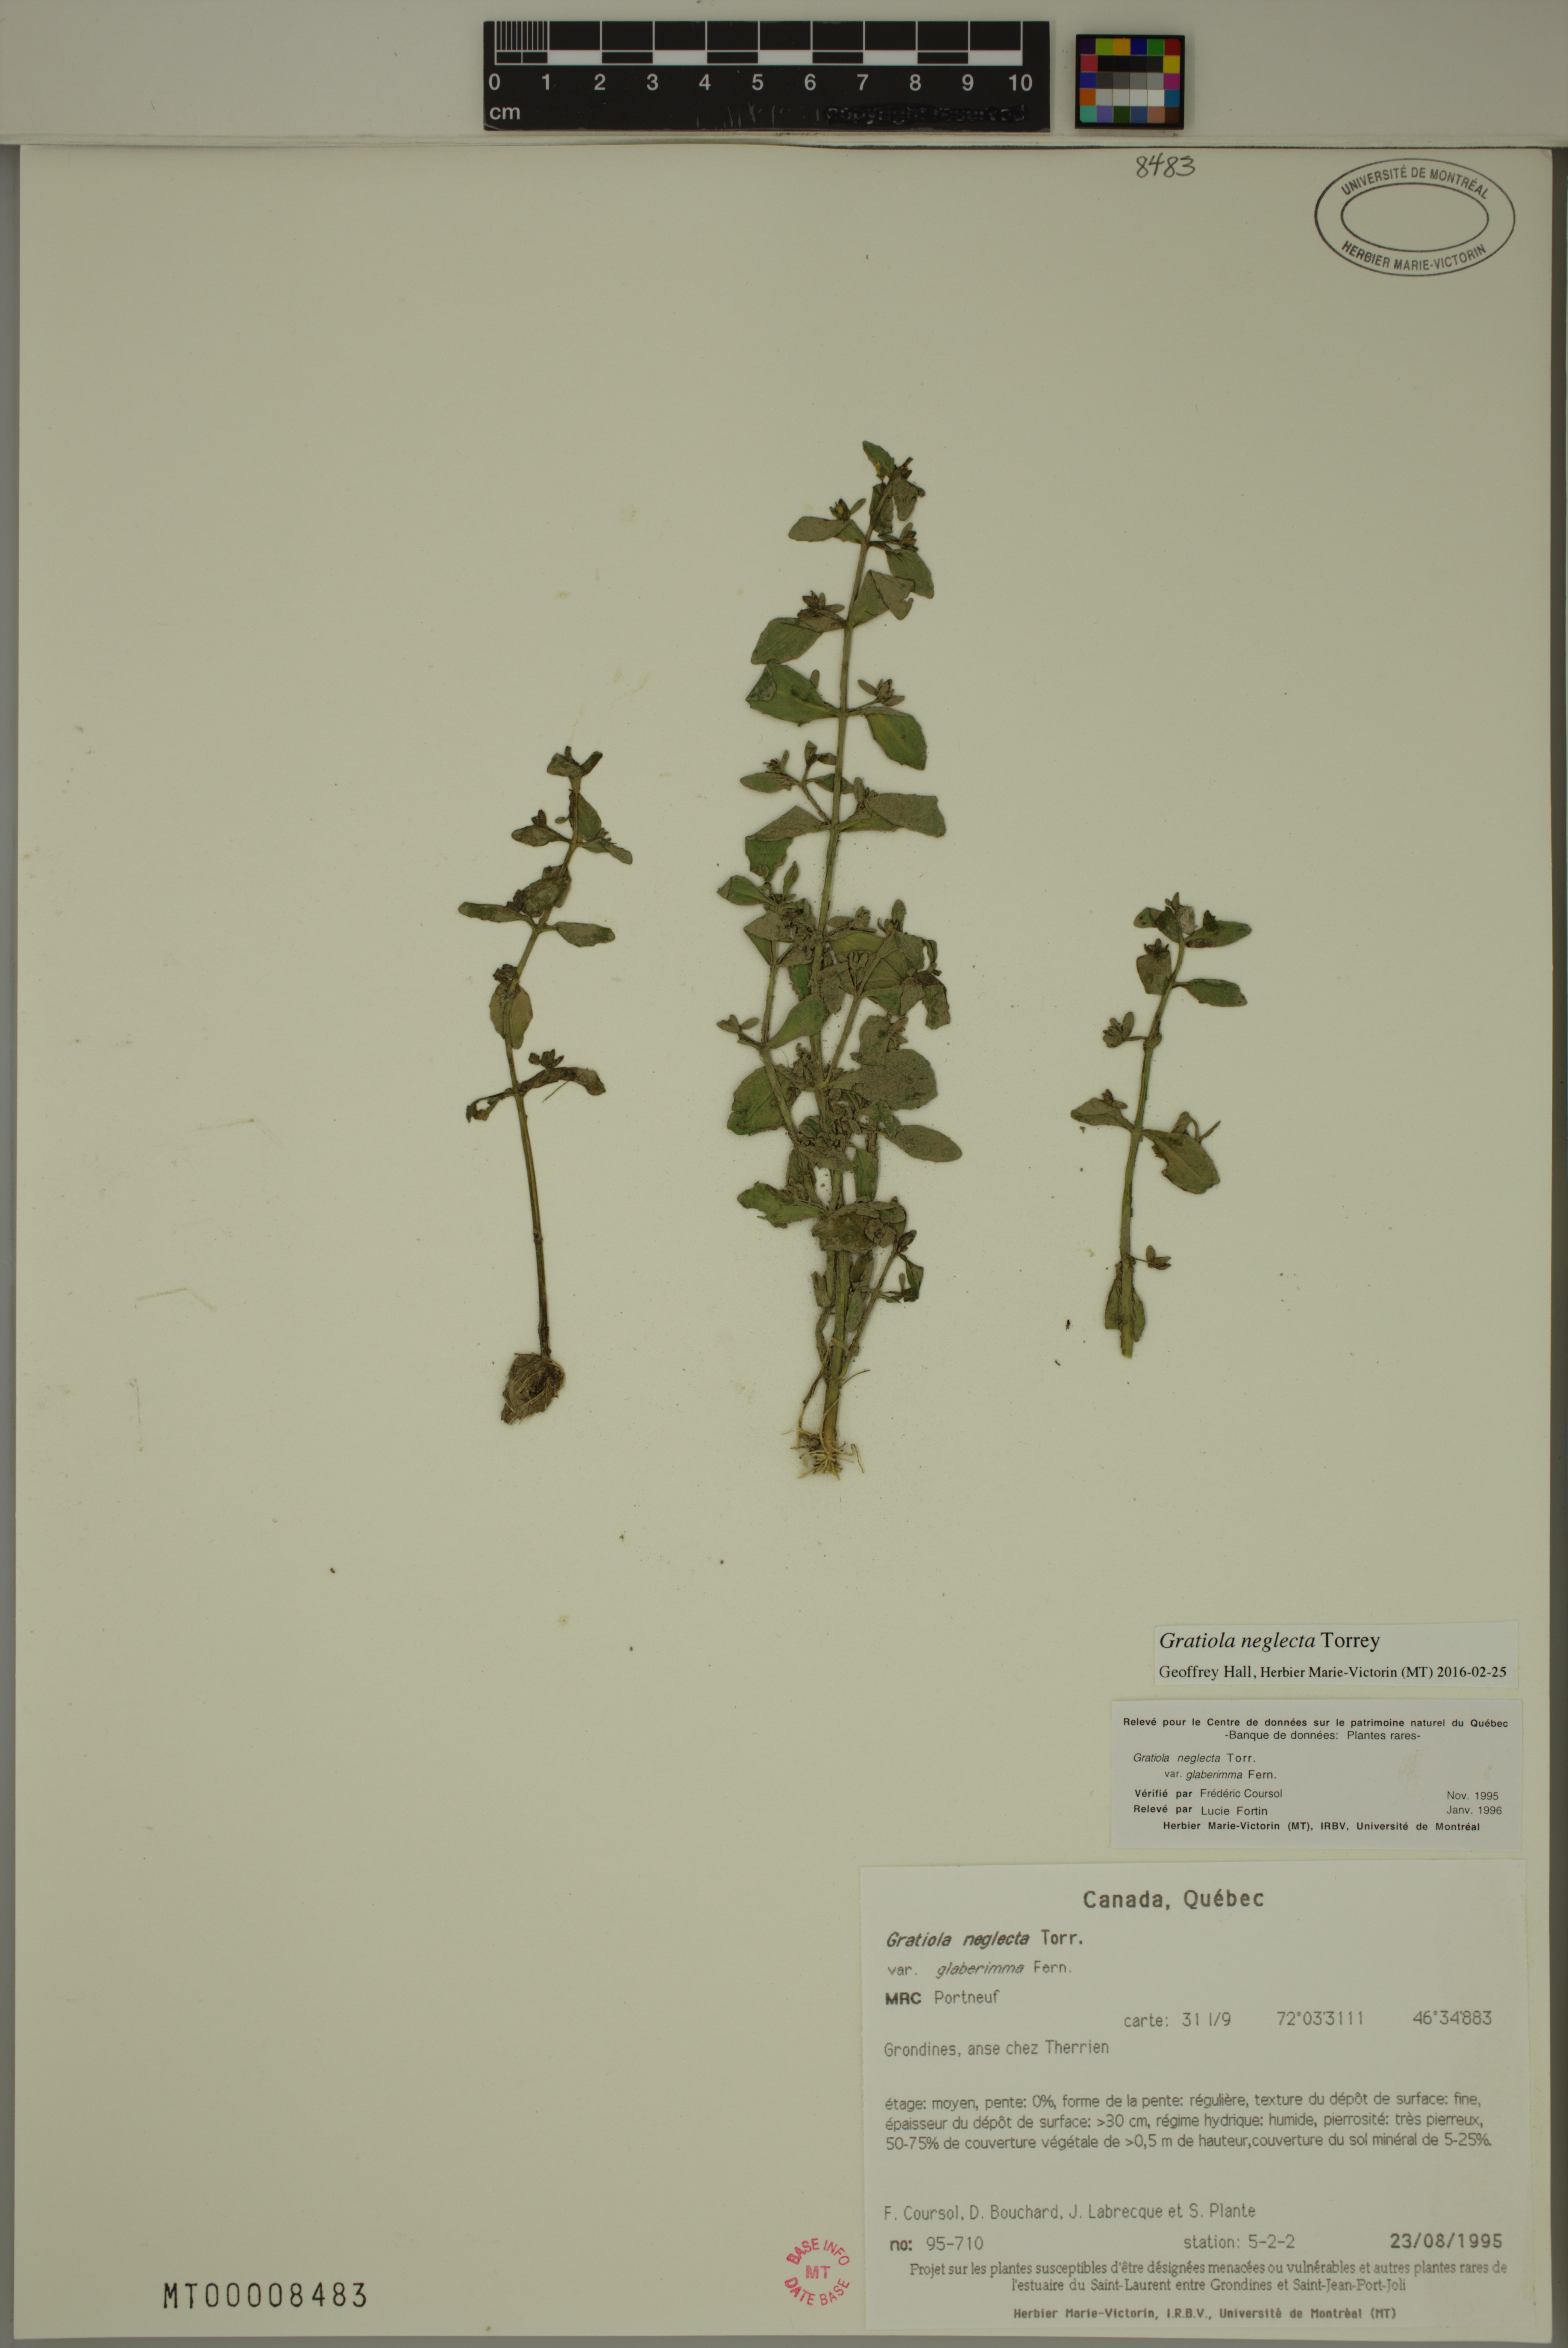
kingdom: Plantae
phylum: Tracheophyta
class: Magnoliopsida
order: Lamiales
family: Plantaginaceae
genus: Gratiola
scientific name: Gratiola neglecta
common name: American hedge-hyssop
